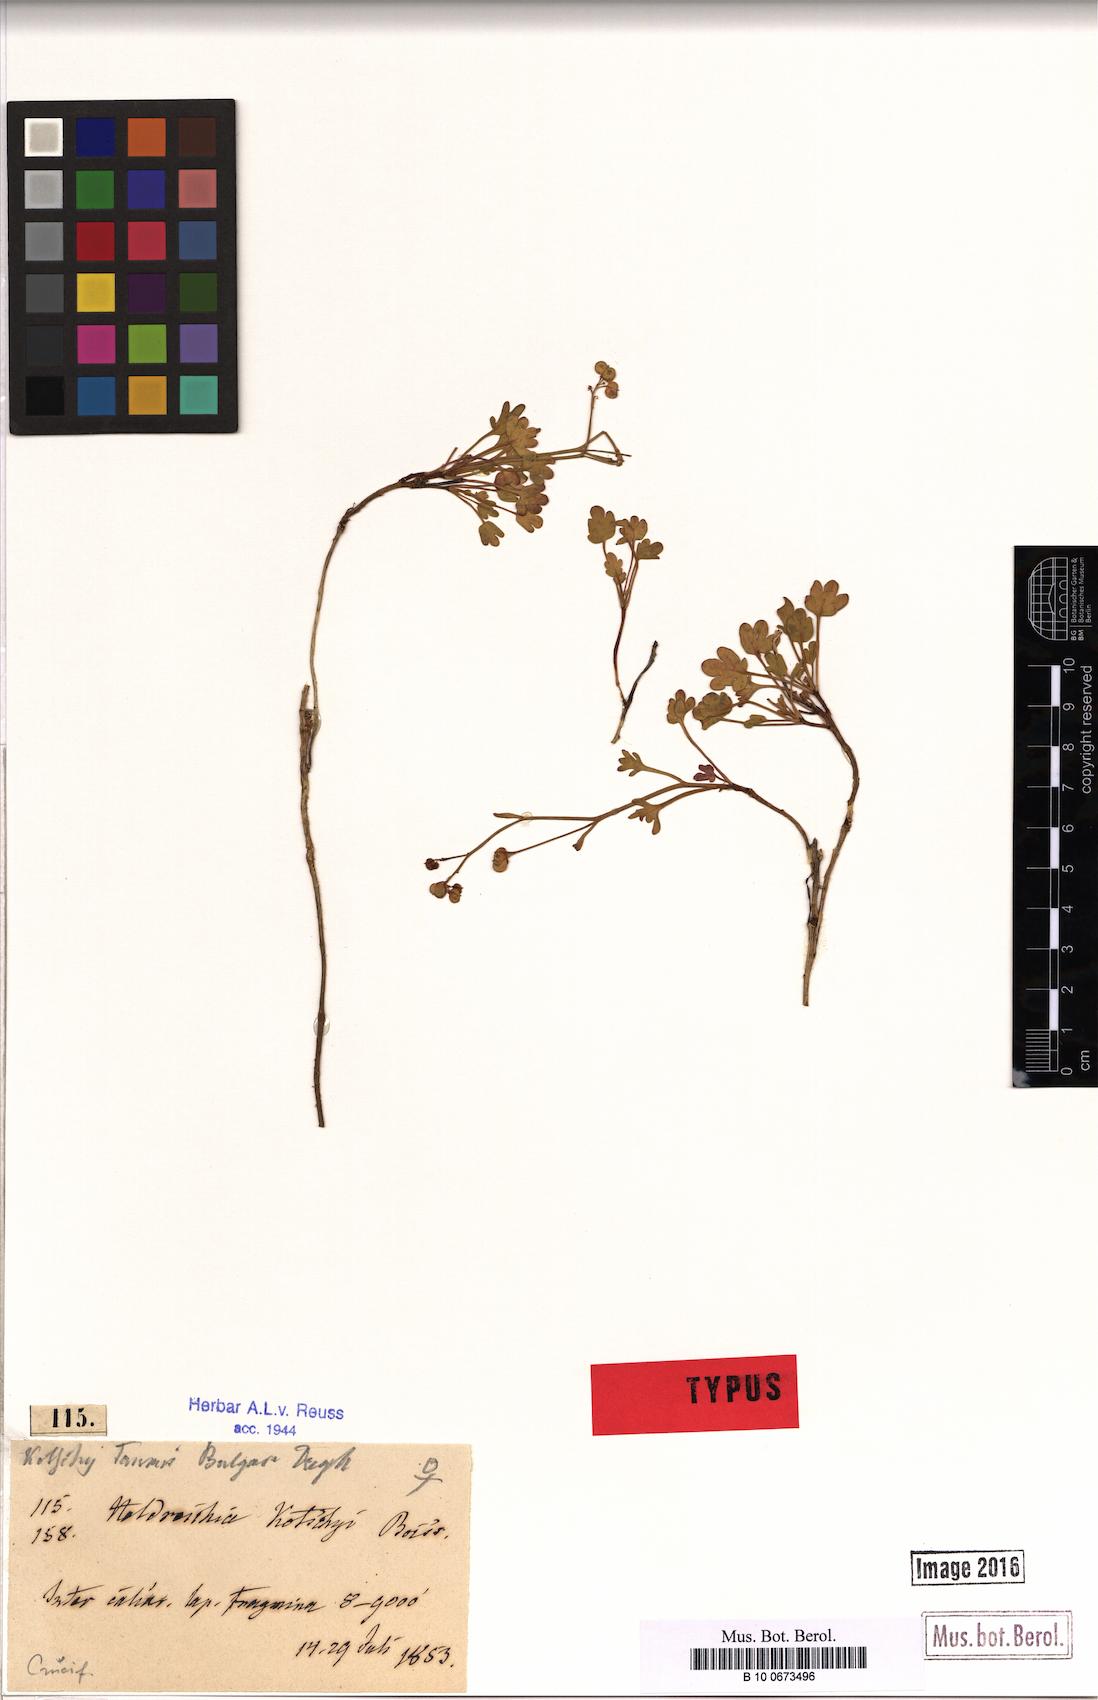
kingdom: Plantae
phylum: Tracheophyta
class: Magnoliopsida
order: Brassicales
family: Brassicaceae
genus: Heldreichia
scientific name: Heldreichia bupleurifolia
